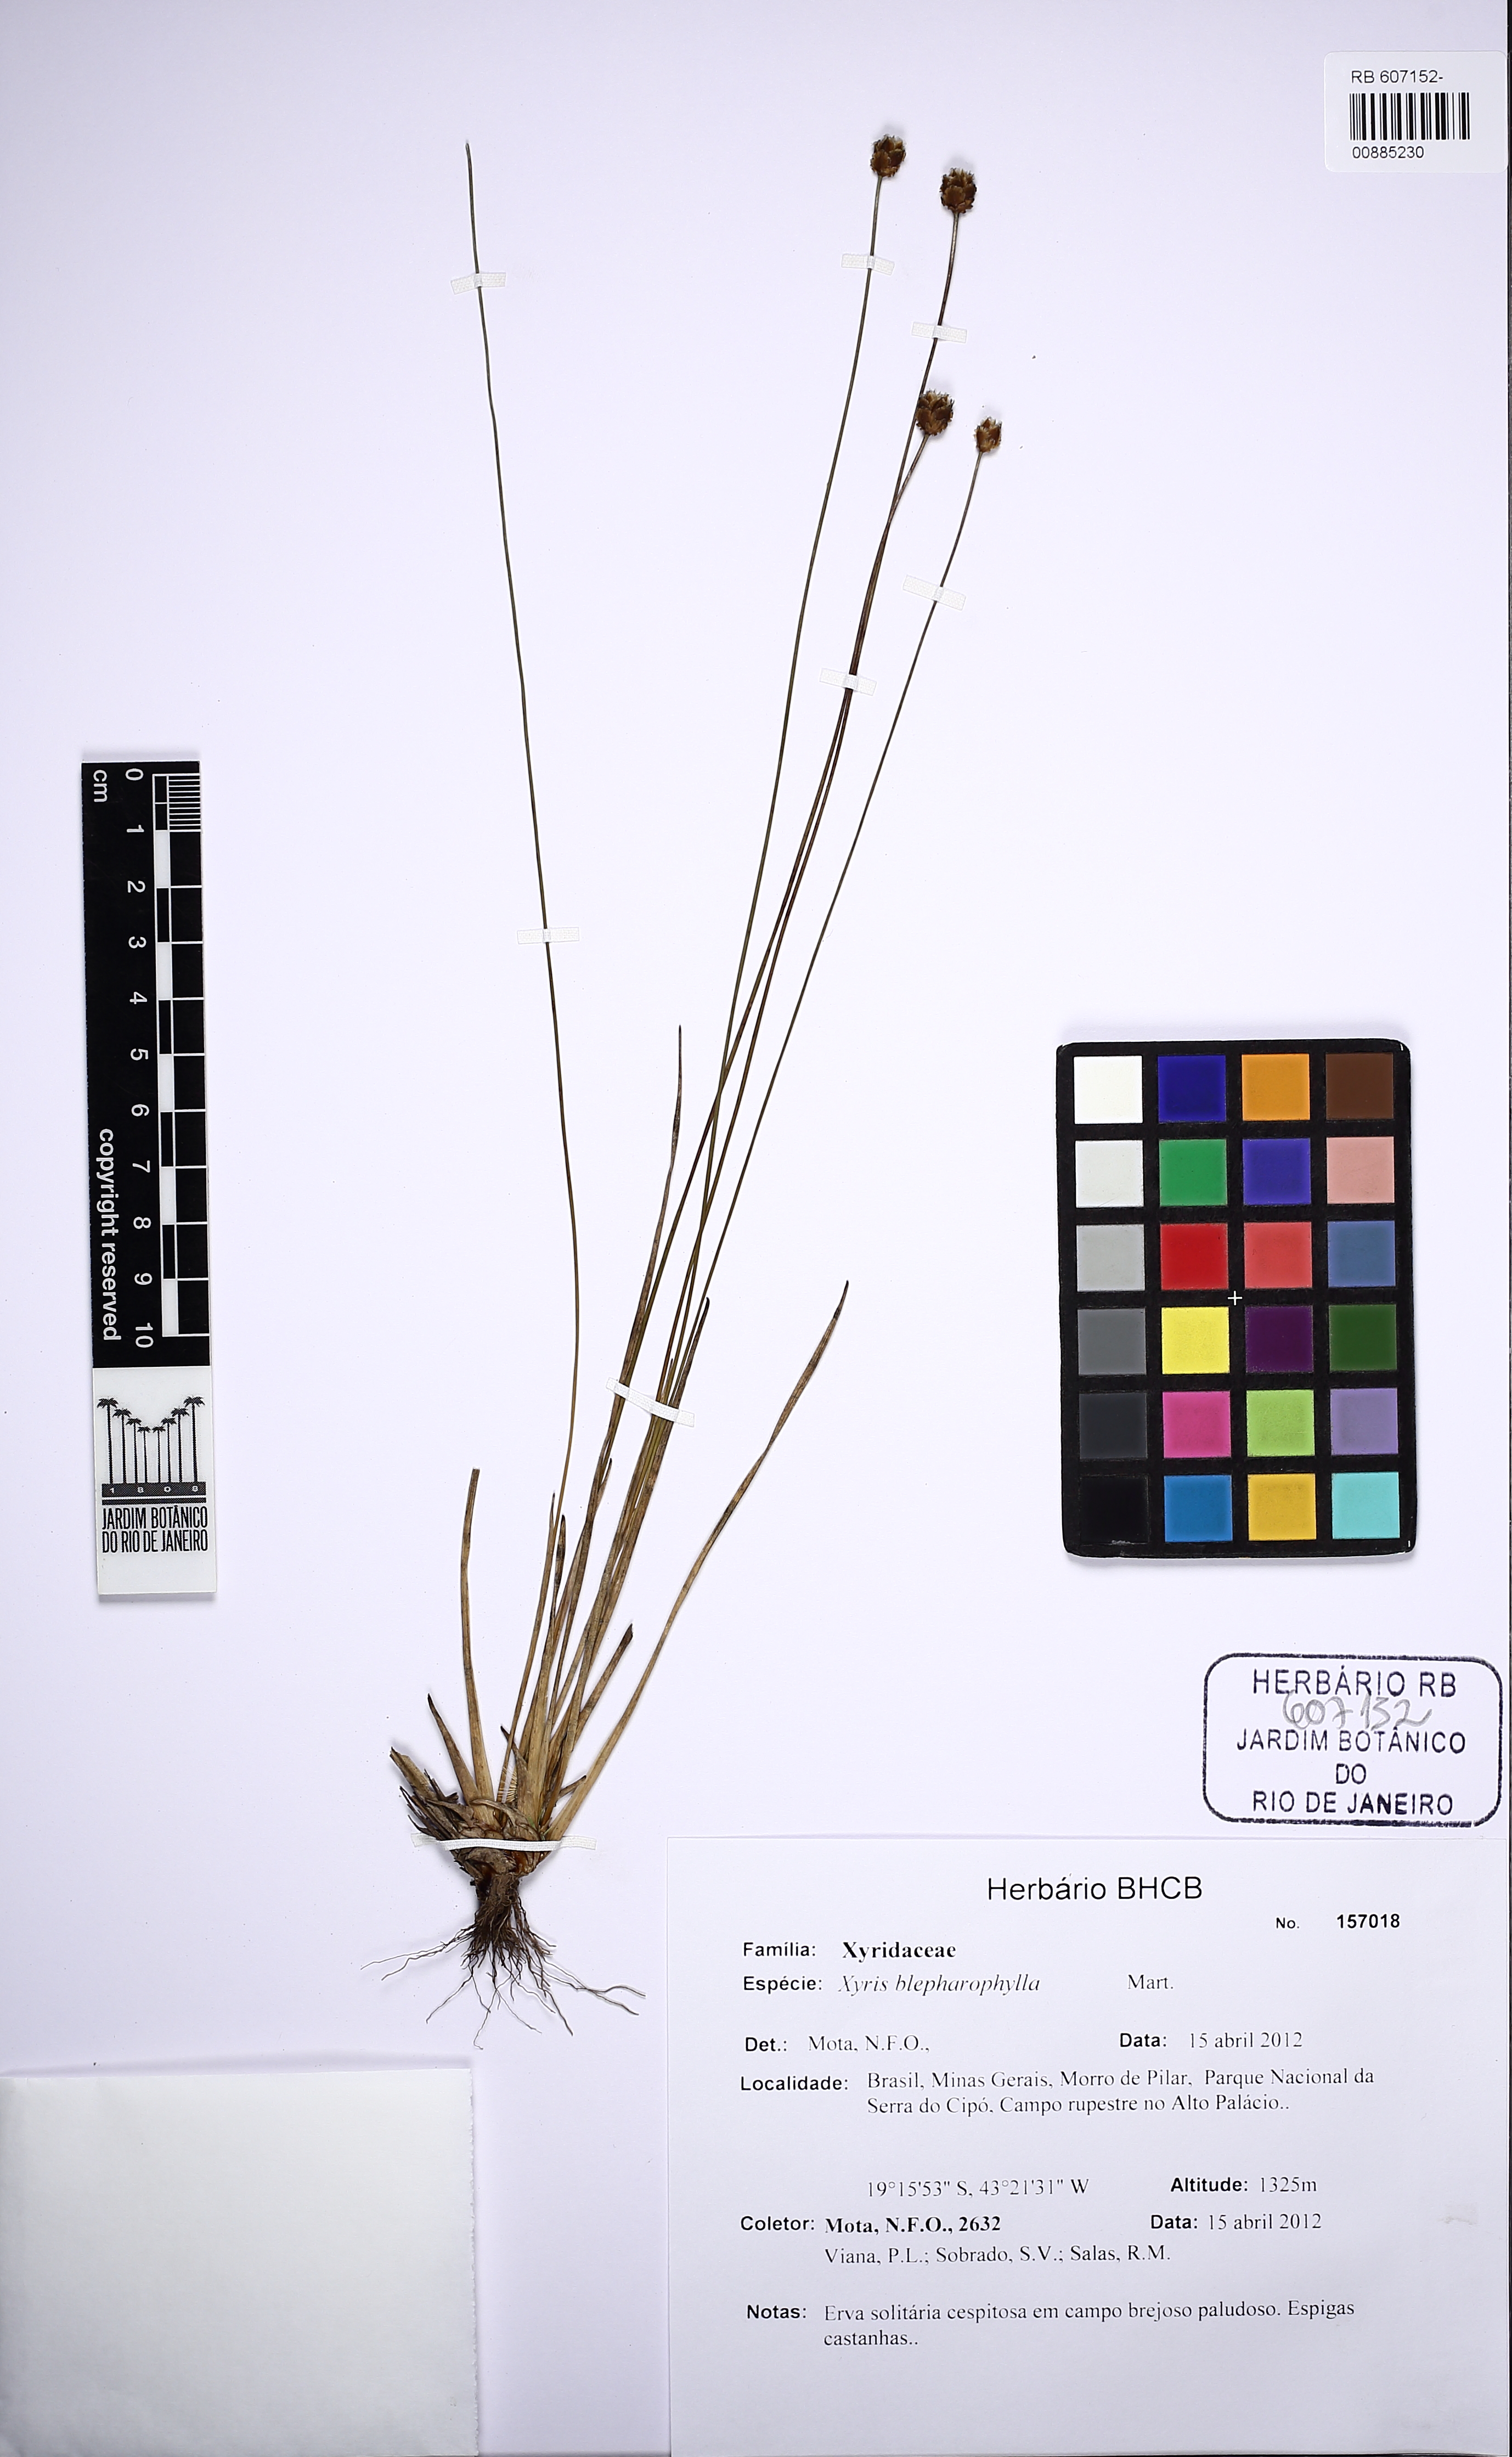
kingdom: Plantae
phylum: Tracheophyta
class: Liliopsida
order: Poales
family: Xyridaceae
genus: Xyris
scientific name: Xyris blepharophylla
